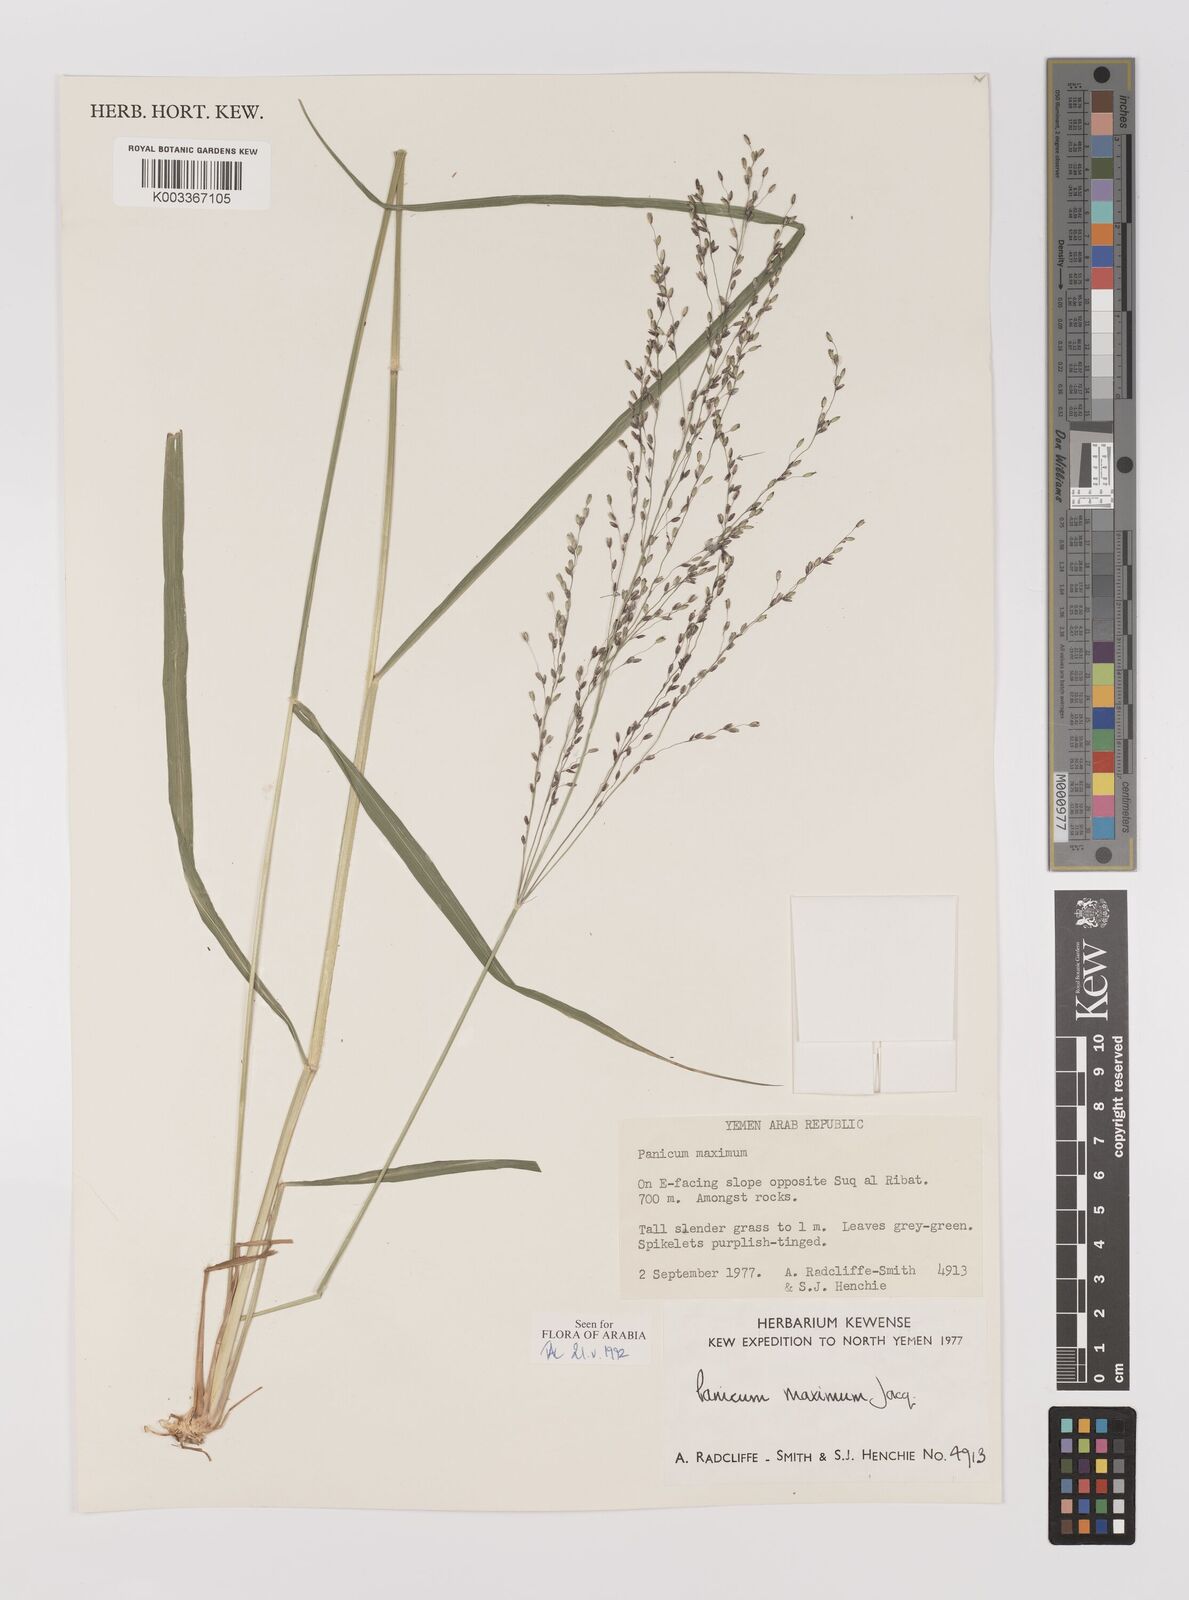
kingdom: Plantae
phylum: Tracheophyta
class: Liliopsida
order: Poales
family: Poaceae
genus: Megathyrsus
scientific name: Megathyrsus maximus
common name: Guineagrass
